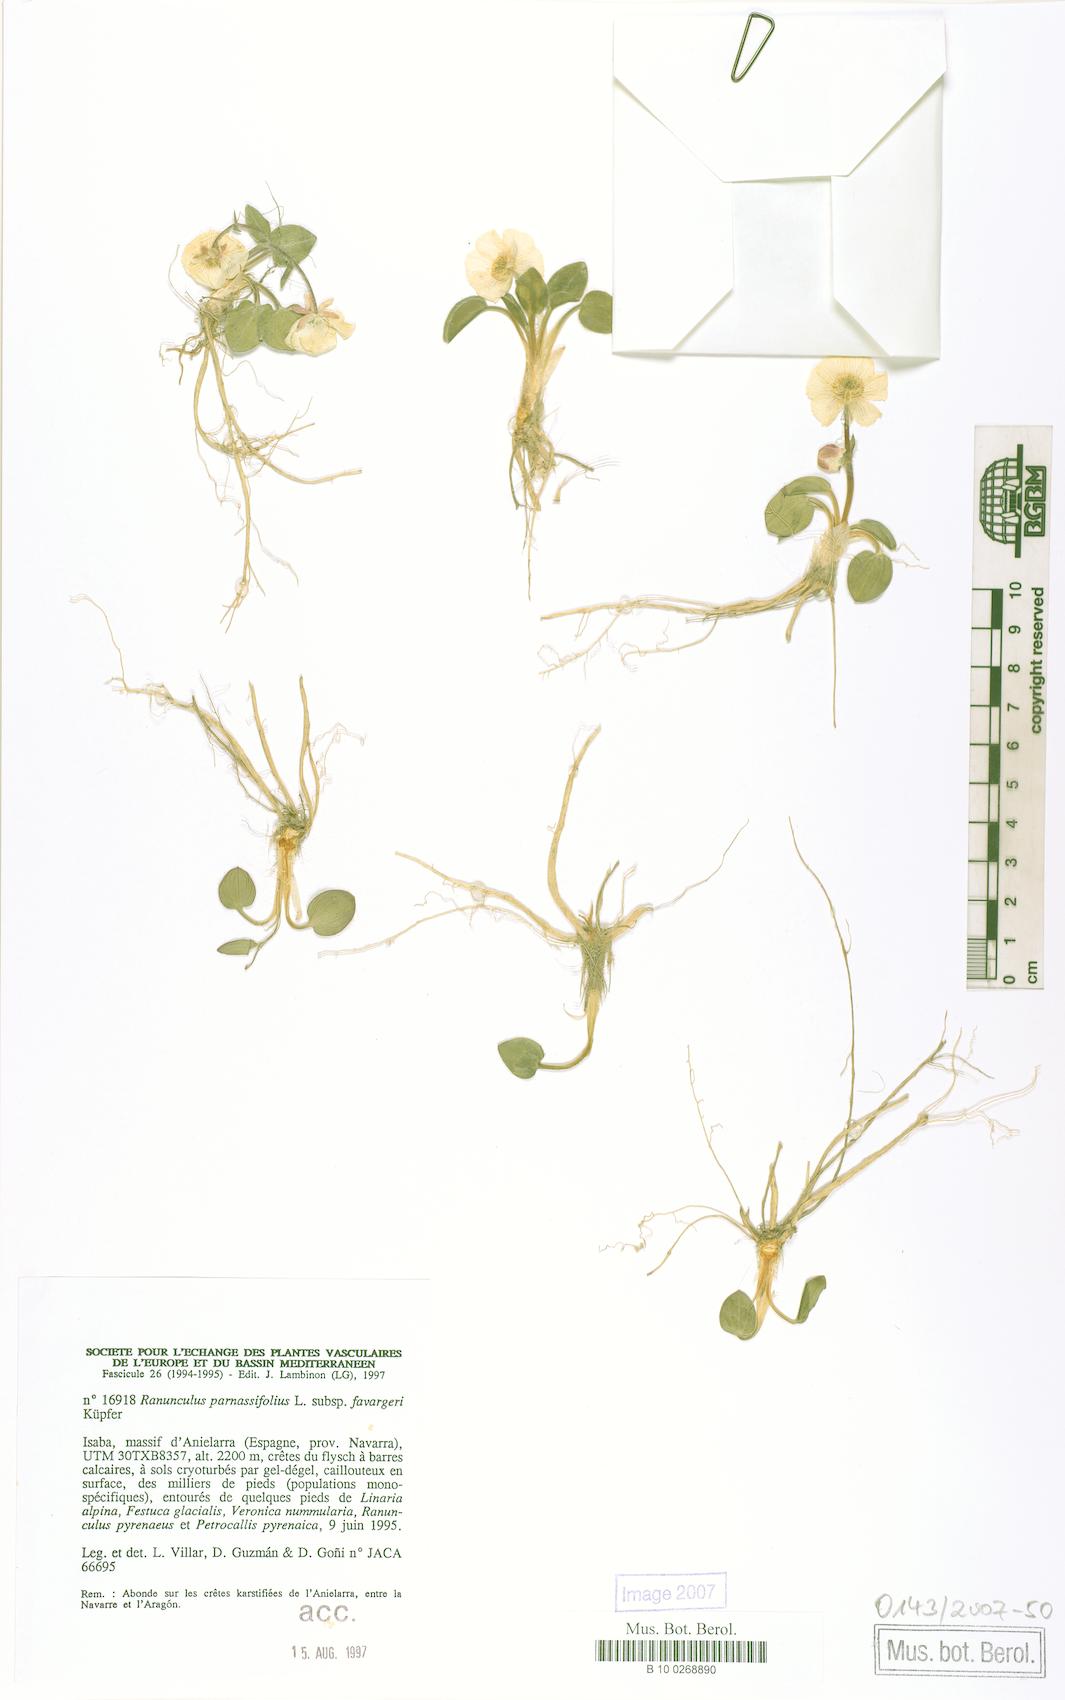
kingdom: Plantae
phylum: Tracheophyta
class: Magnoliopsida
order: Ranunculales
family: Ranunculaceae
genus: Ranunculus
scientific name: Ranunculus parnassiifolius
